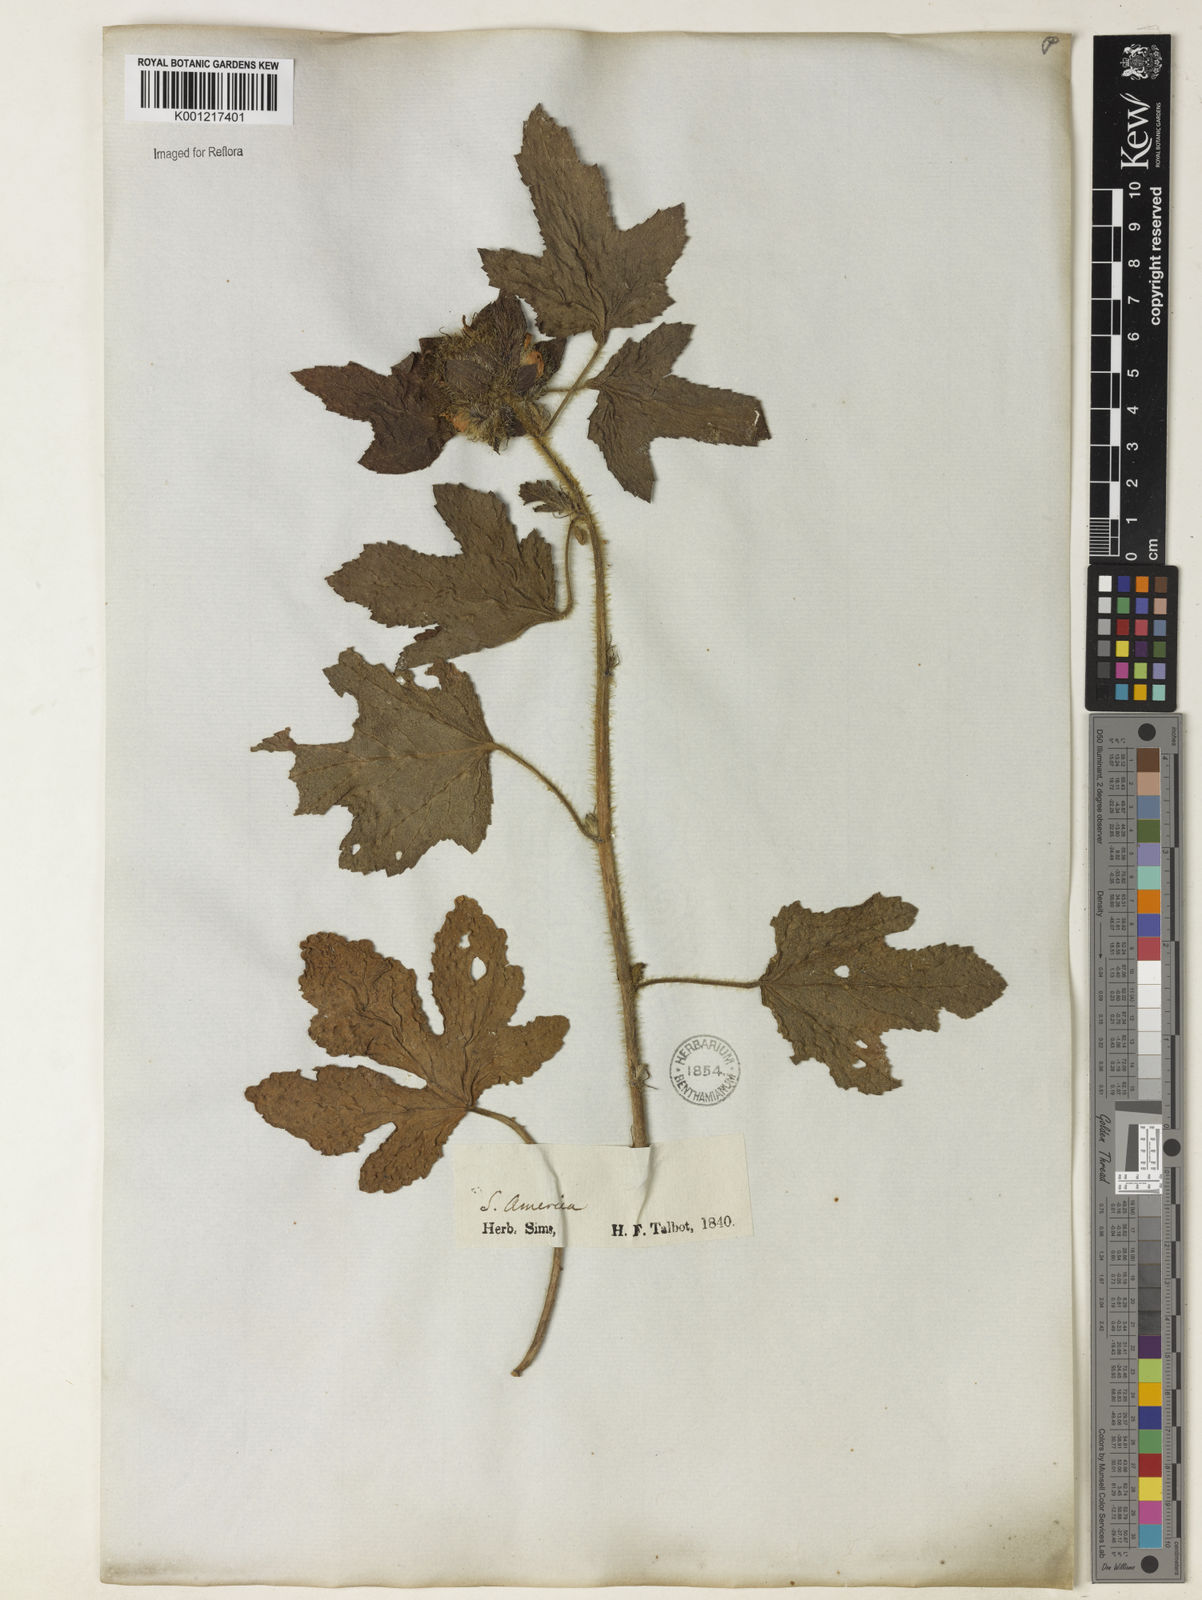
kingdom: Plantae
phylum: Tracheophyta
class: Magnoliopsida
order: Malvales
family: Malvaceae
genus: Malachra
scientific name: Malachra fasciata
